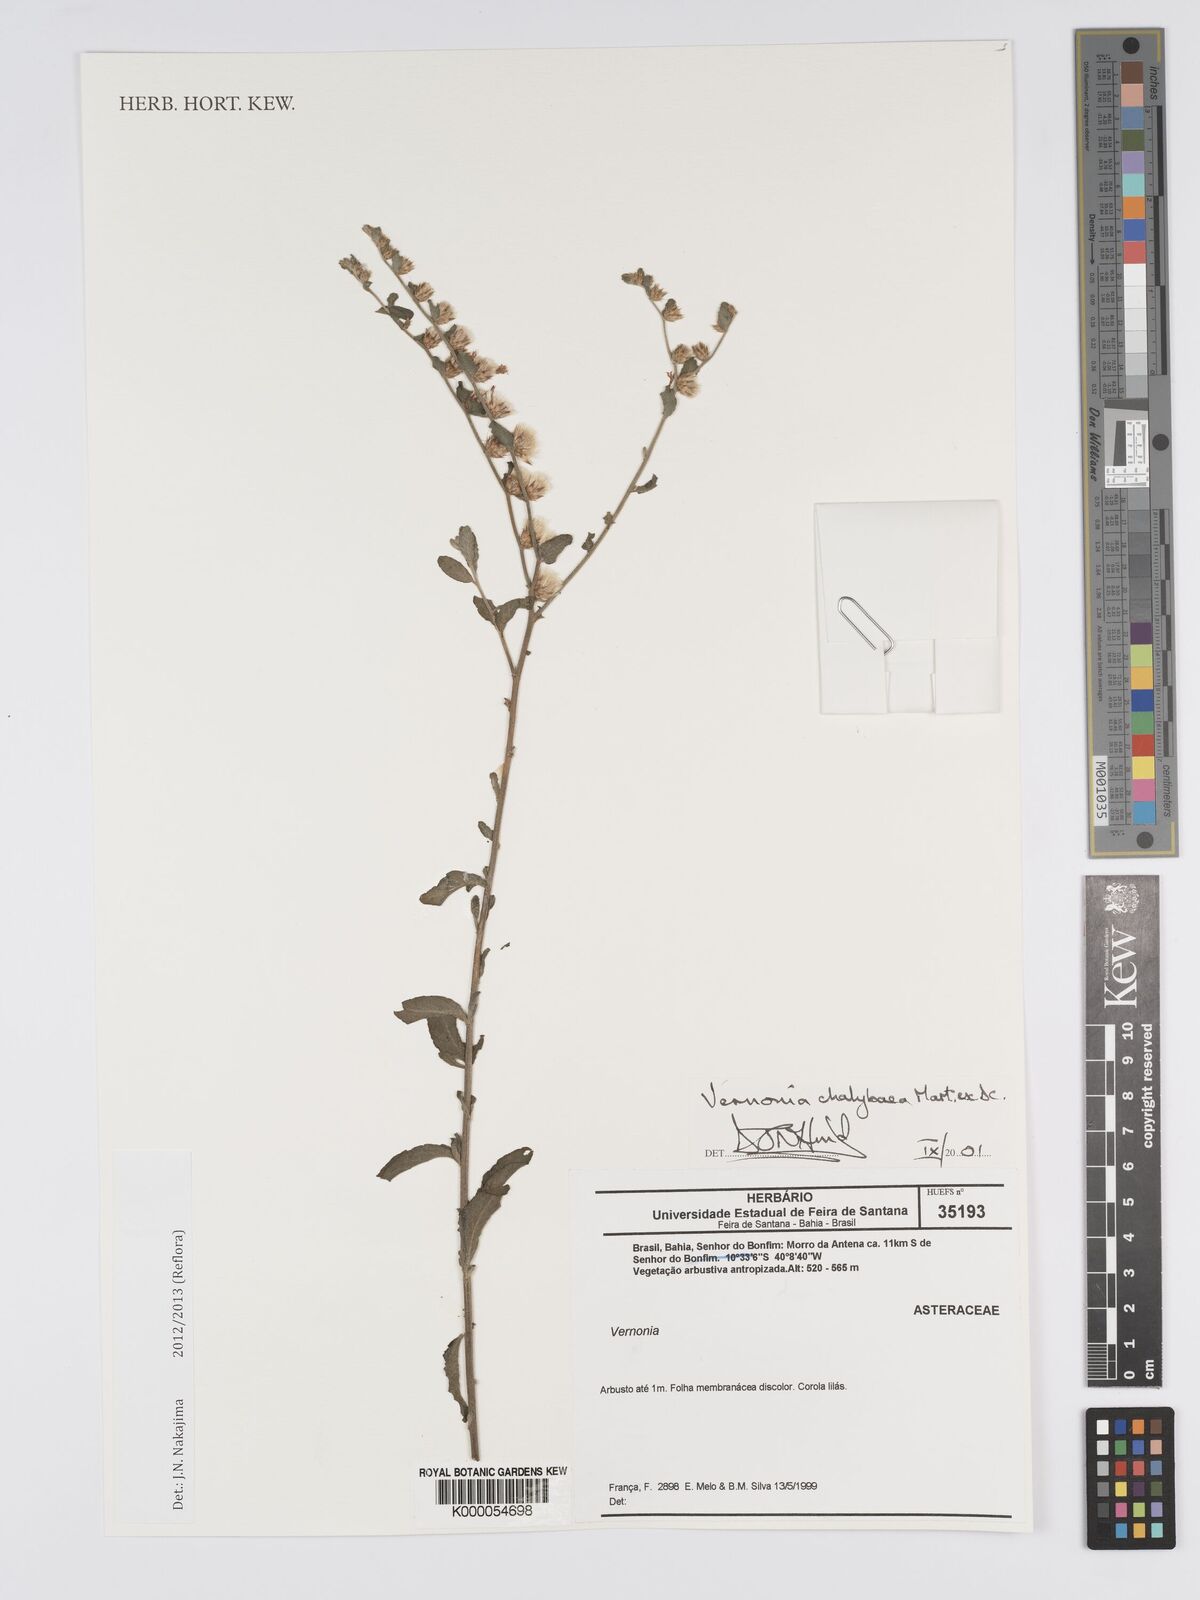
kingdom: Plantae
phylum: Tracheophyta
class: Magnoliopsida
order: Asterales
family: Asteraceae
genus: Lepidaploa
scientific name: Lepidaploa chalybaea
